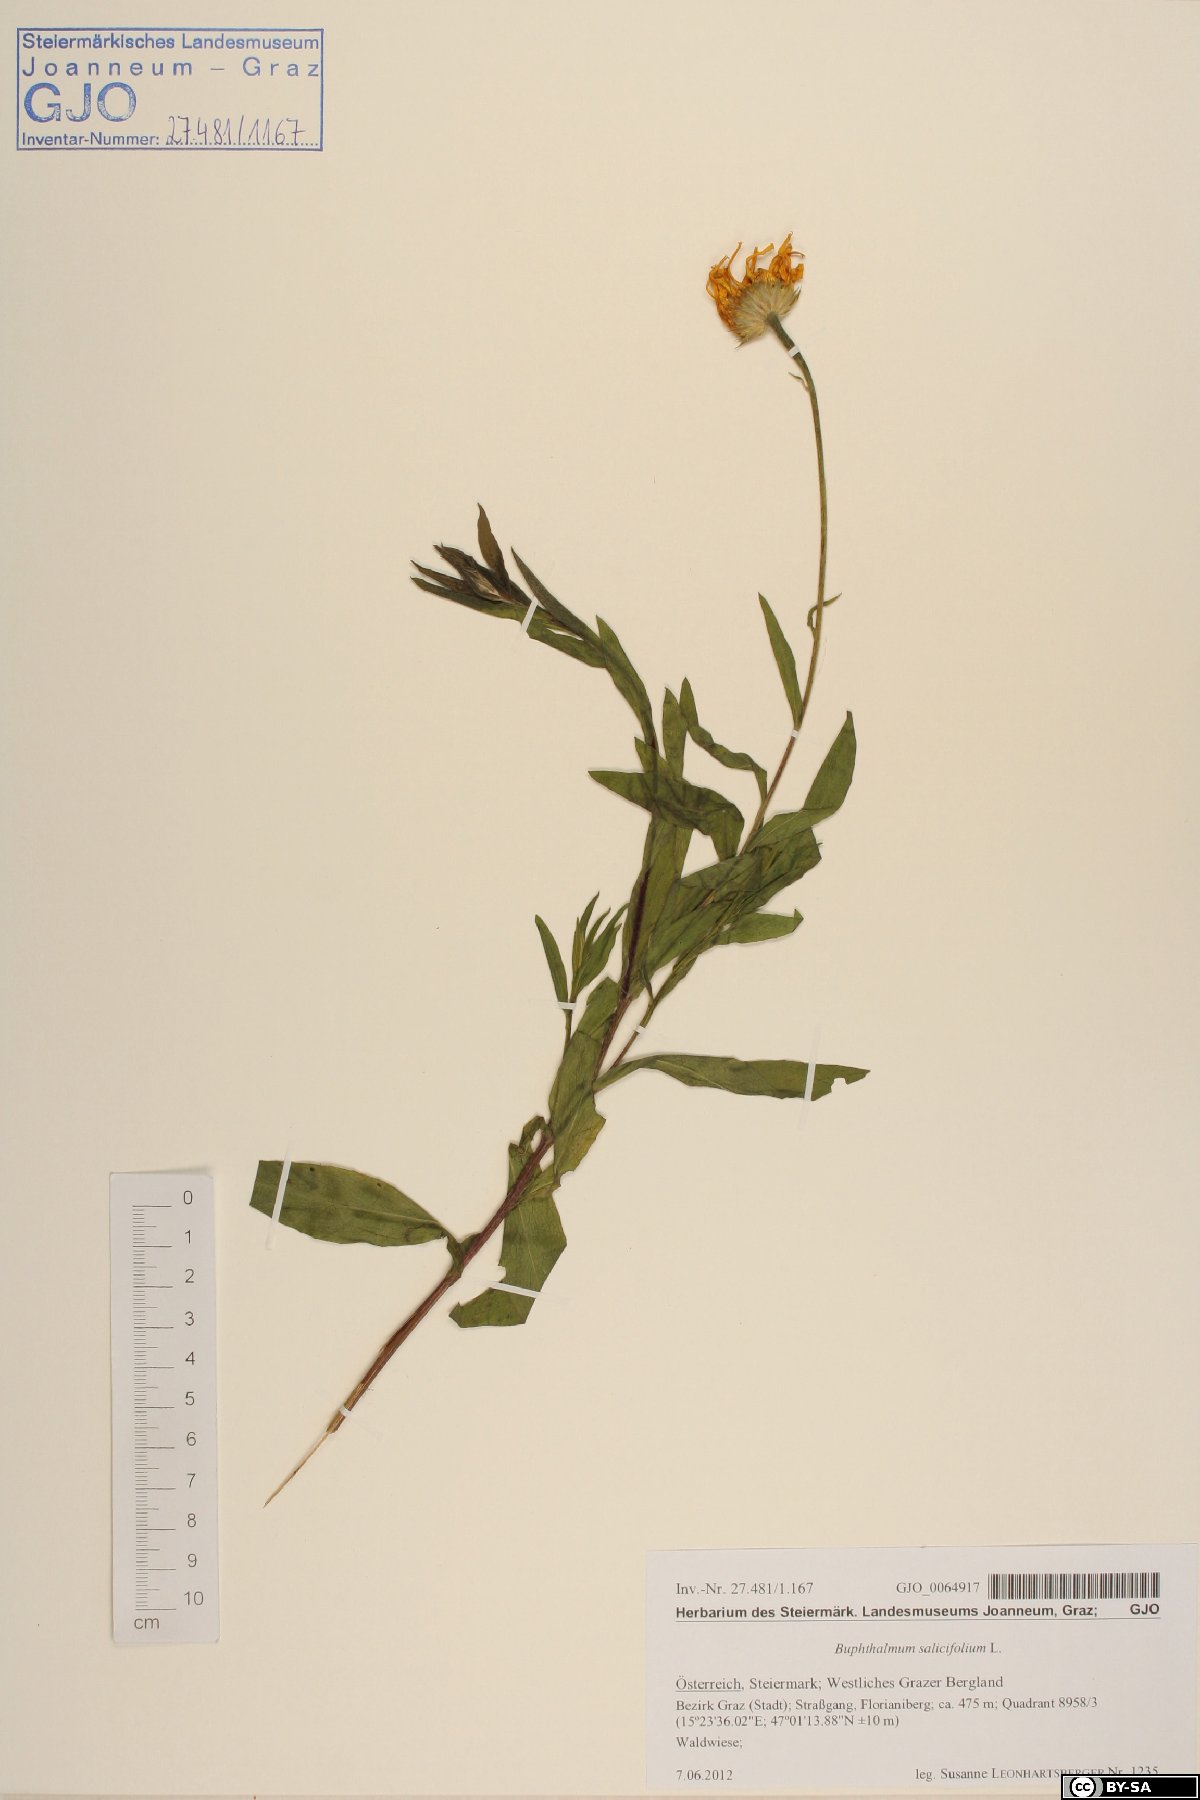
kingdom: Plantae
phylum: Tracheophyta
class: Magnoliopsida
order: Asterales
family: Asteraceae
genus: Buphthalmum
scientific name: Buphthalmum salicifolium
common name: Willow-leaved yellow-oxeye
